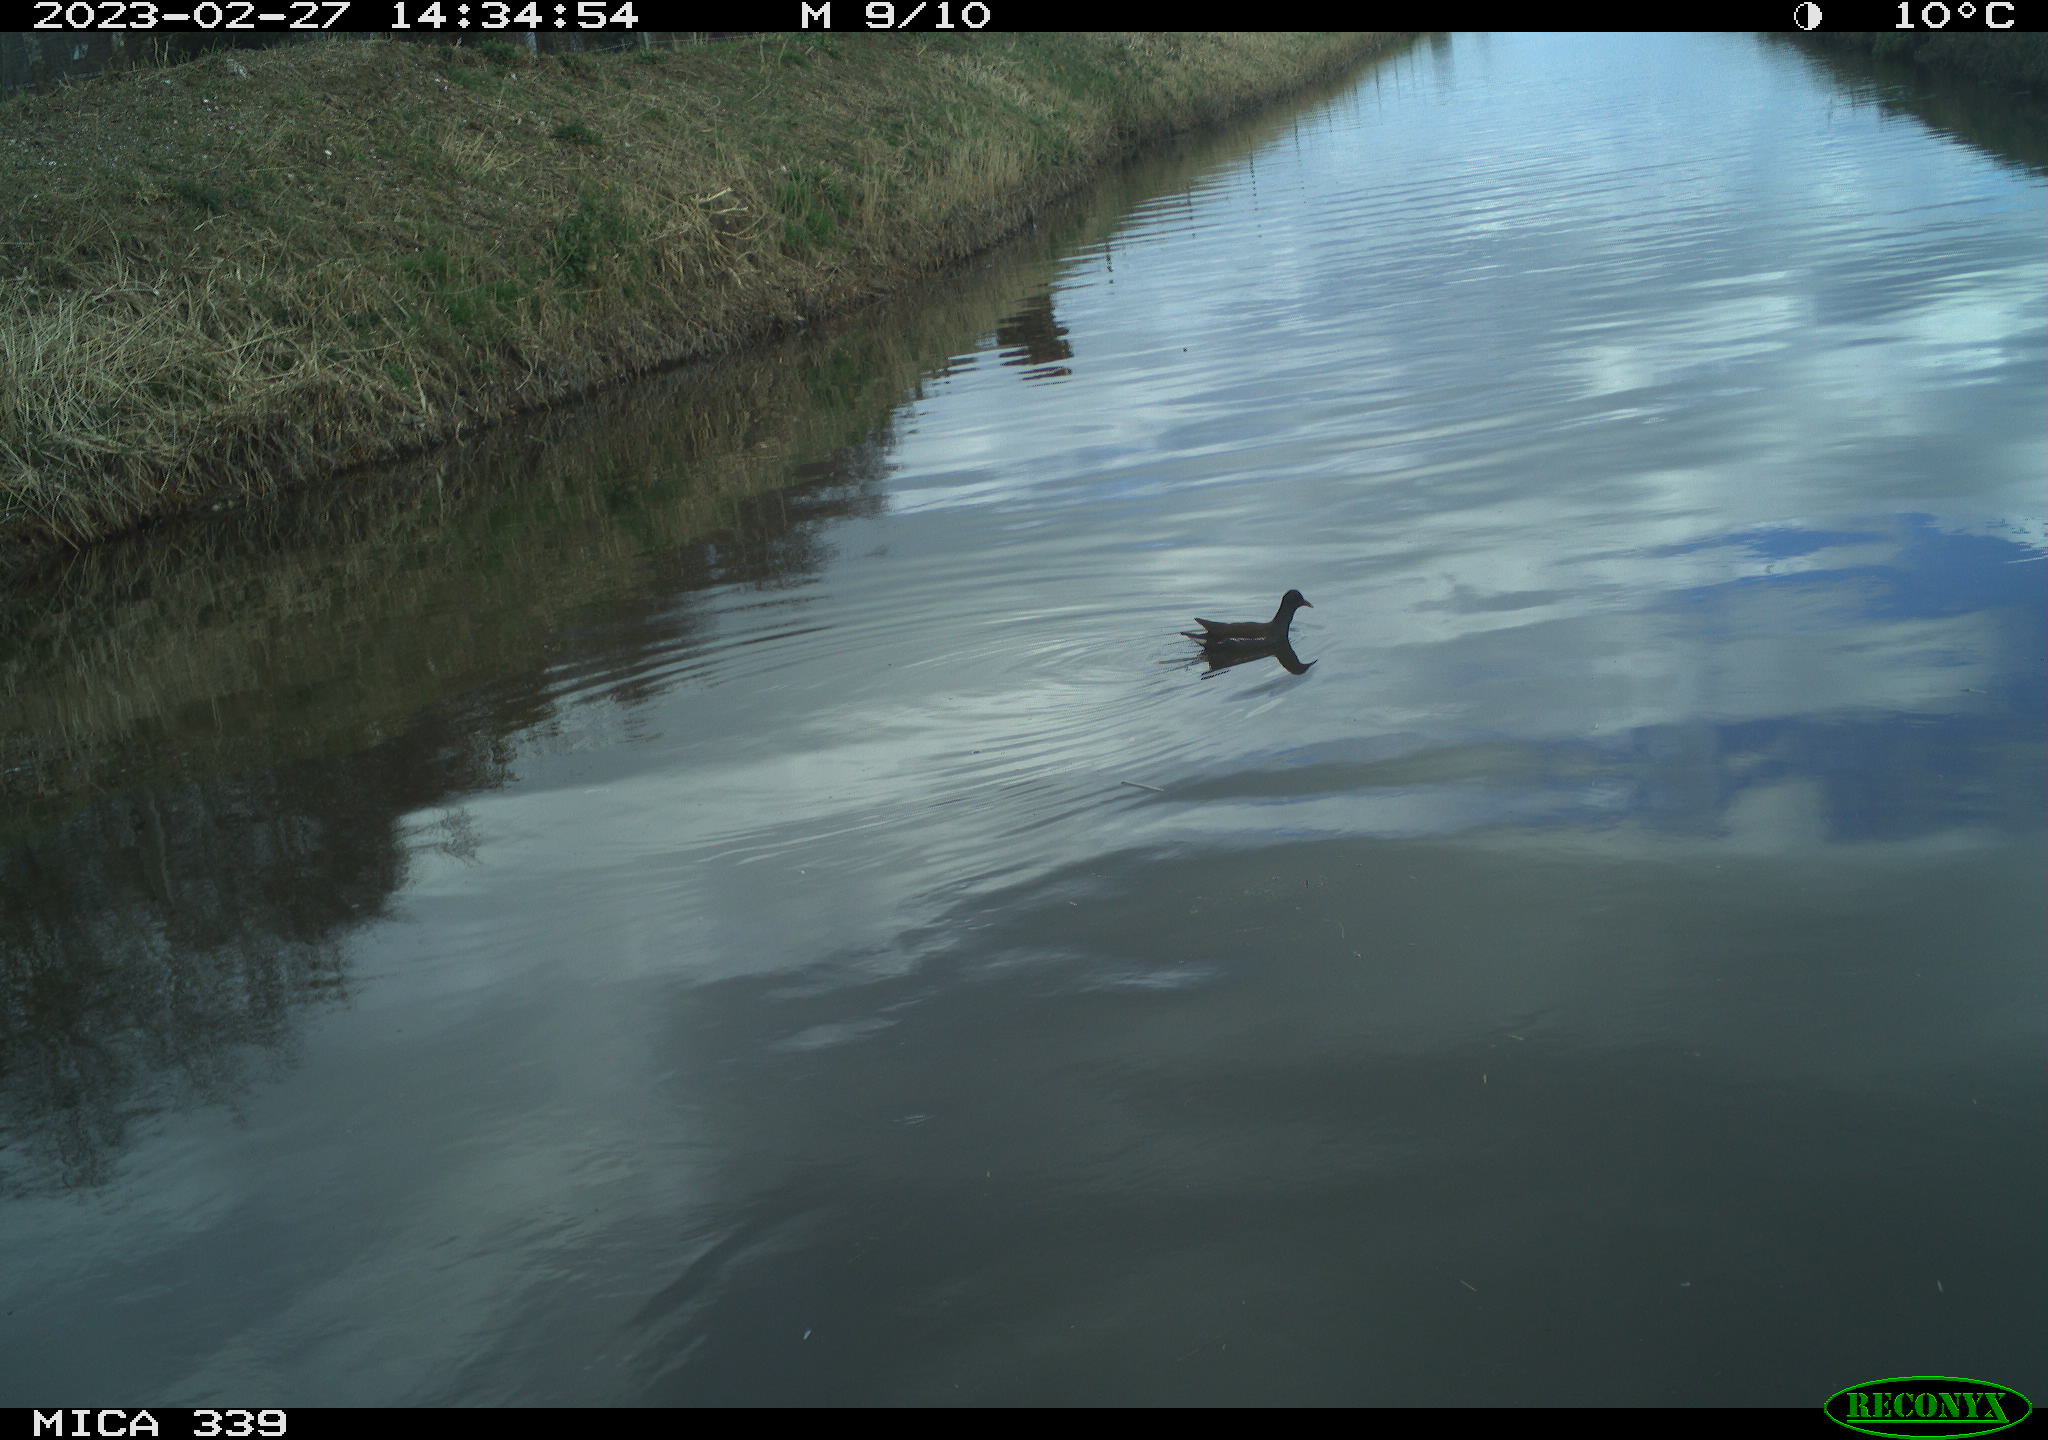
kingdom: Animalia
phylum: Chordata
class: Aves
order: Gruiformes
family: Rallidae
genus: Gallinula
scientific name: Gallinula chloropus
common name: Common moorhen
